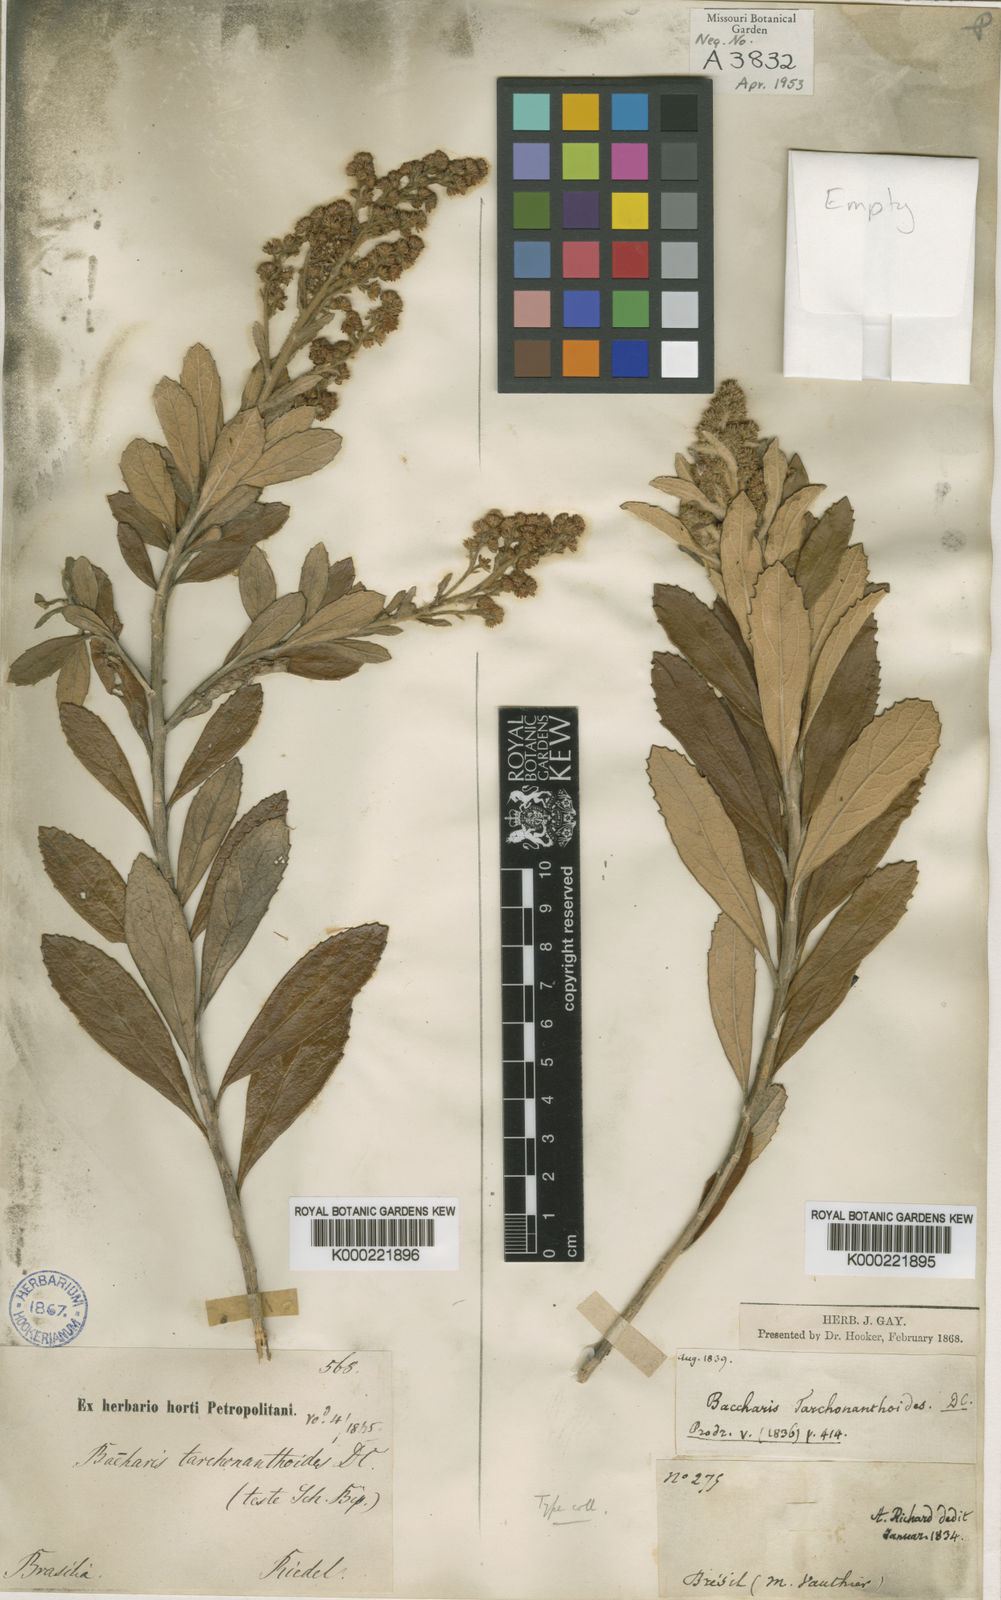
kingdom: Plantae
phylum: Tracheophyta
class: Magnoliopsida
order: Asterales
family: Asteraceae
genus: Baccharis
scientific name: Baccharis tarchonanthoides
